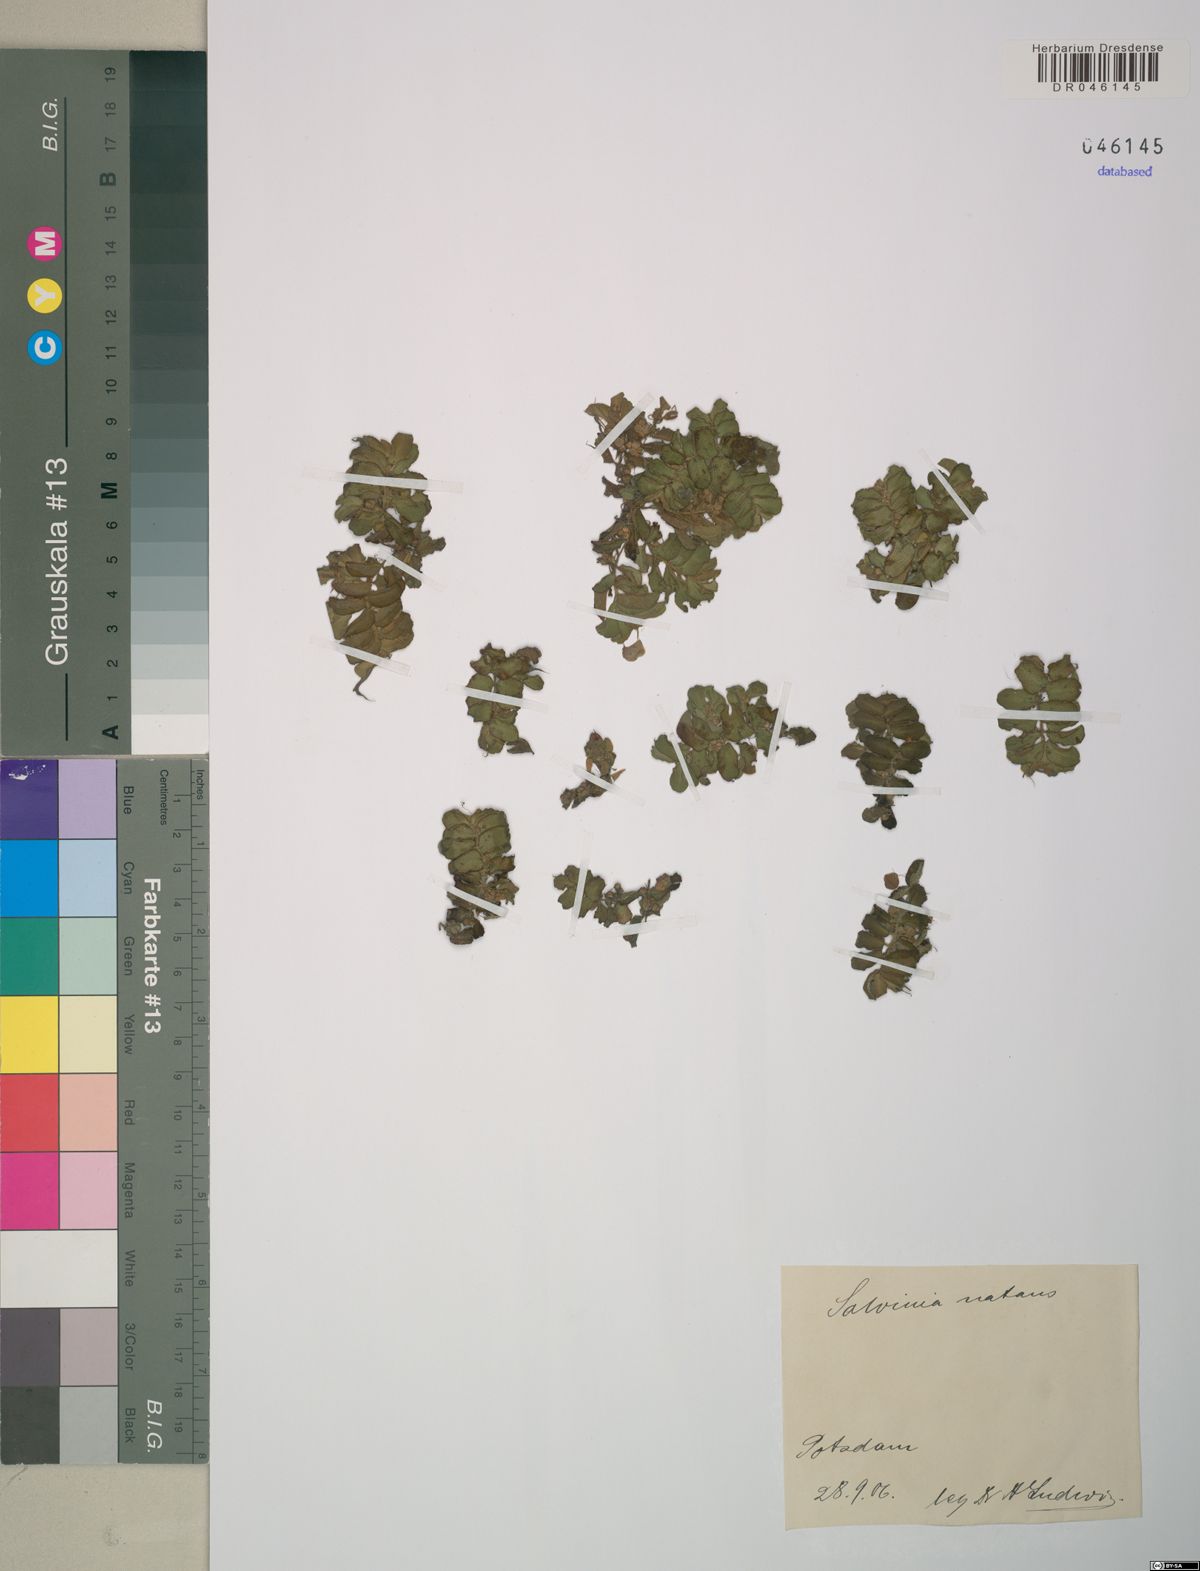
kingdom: Plantae
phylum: Tracheophyta
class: Polypodiopsida
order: Salviniales
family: Salviniaceae
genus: Salvinia
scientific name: Salvinia natans
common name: Floating fern
